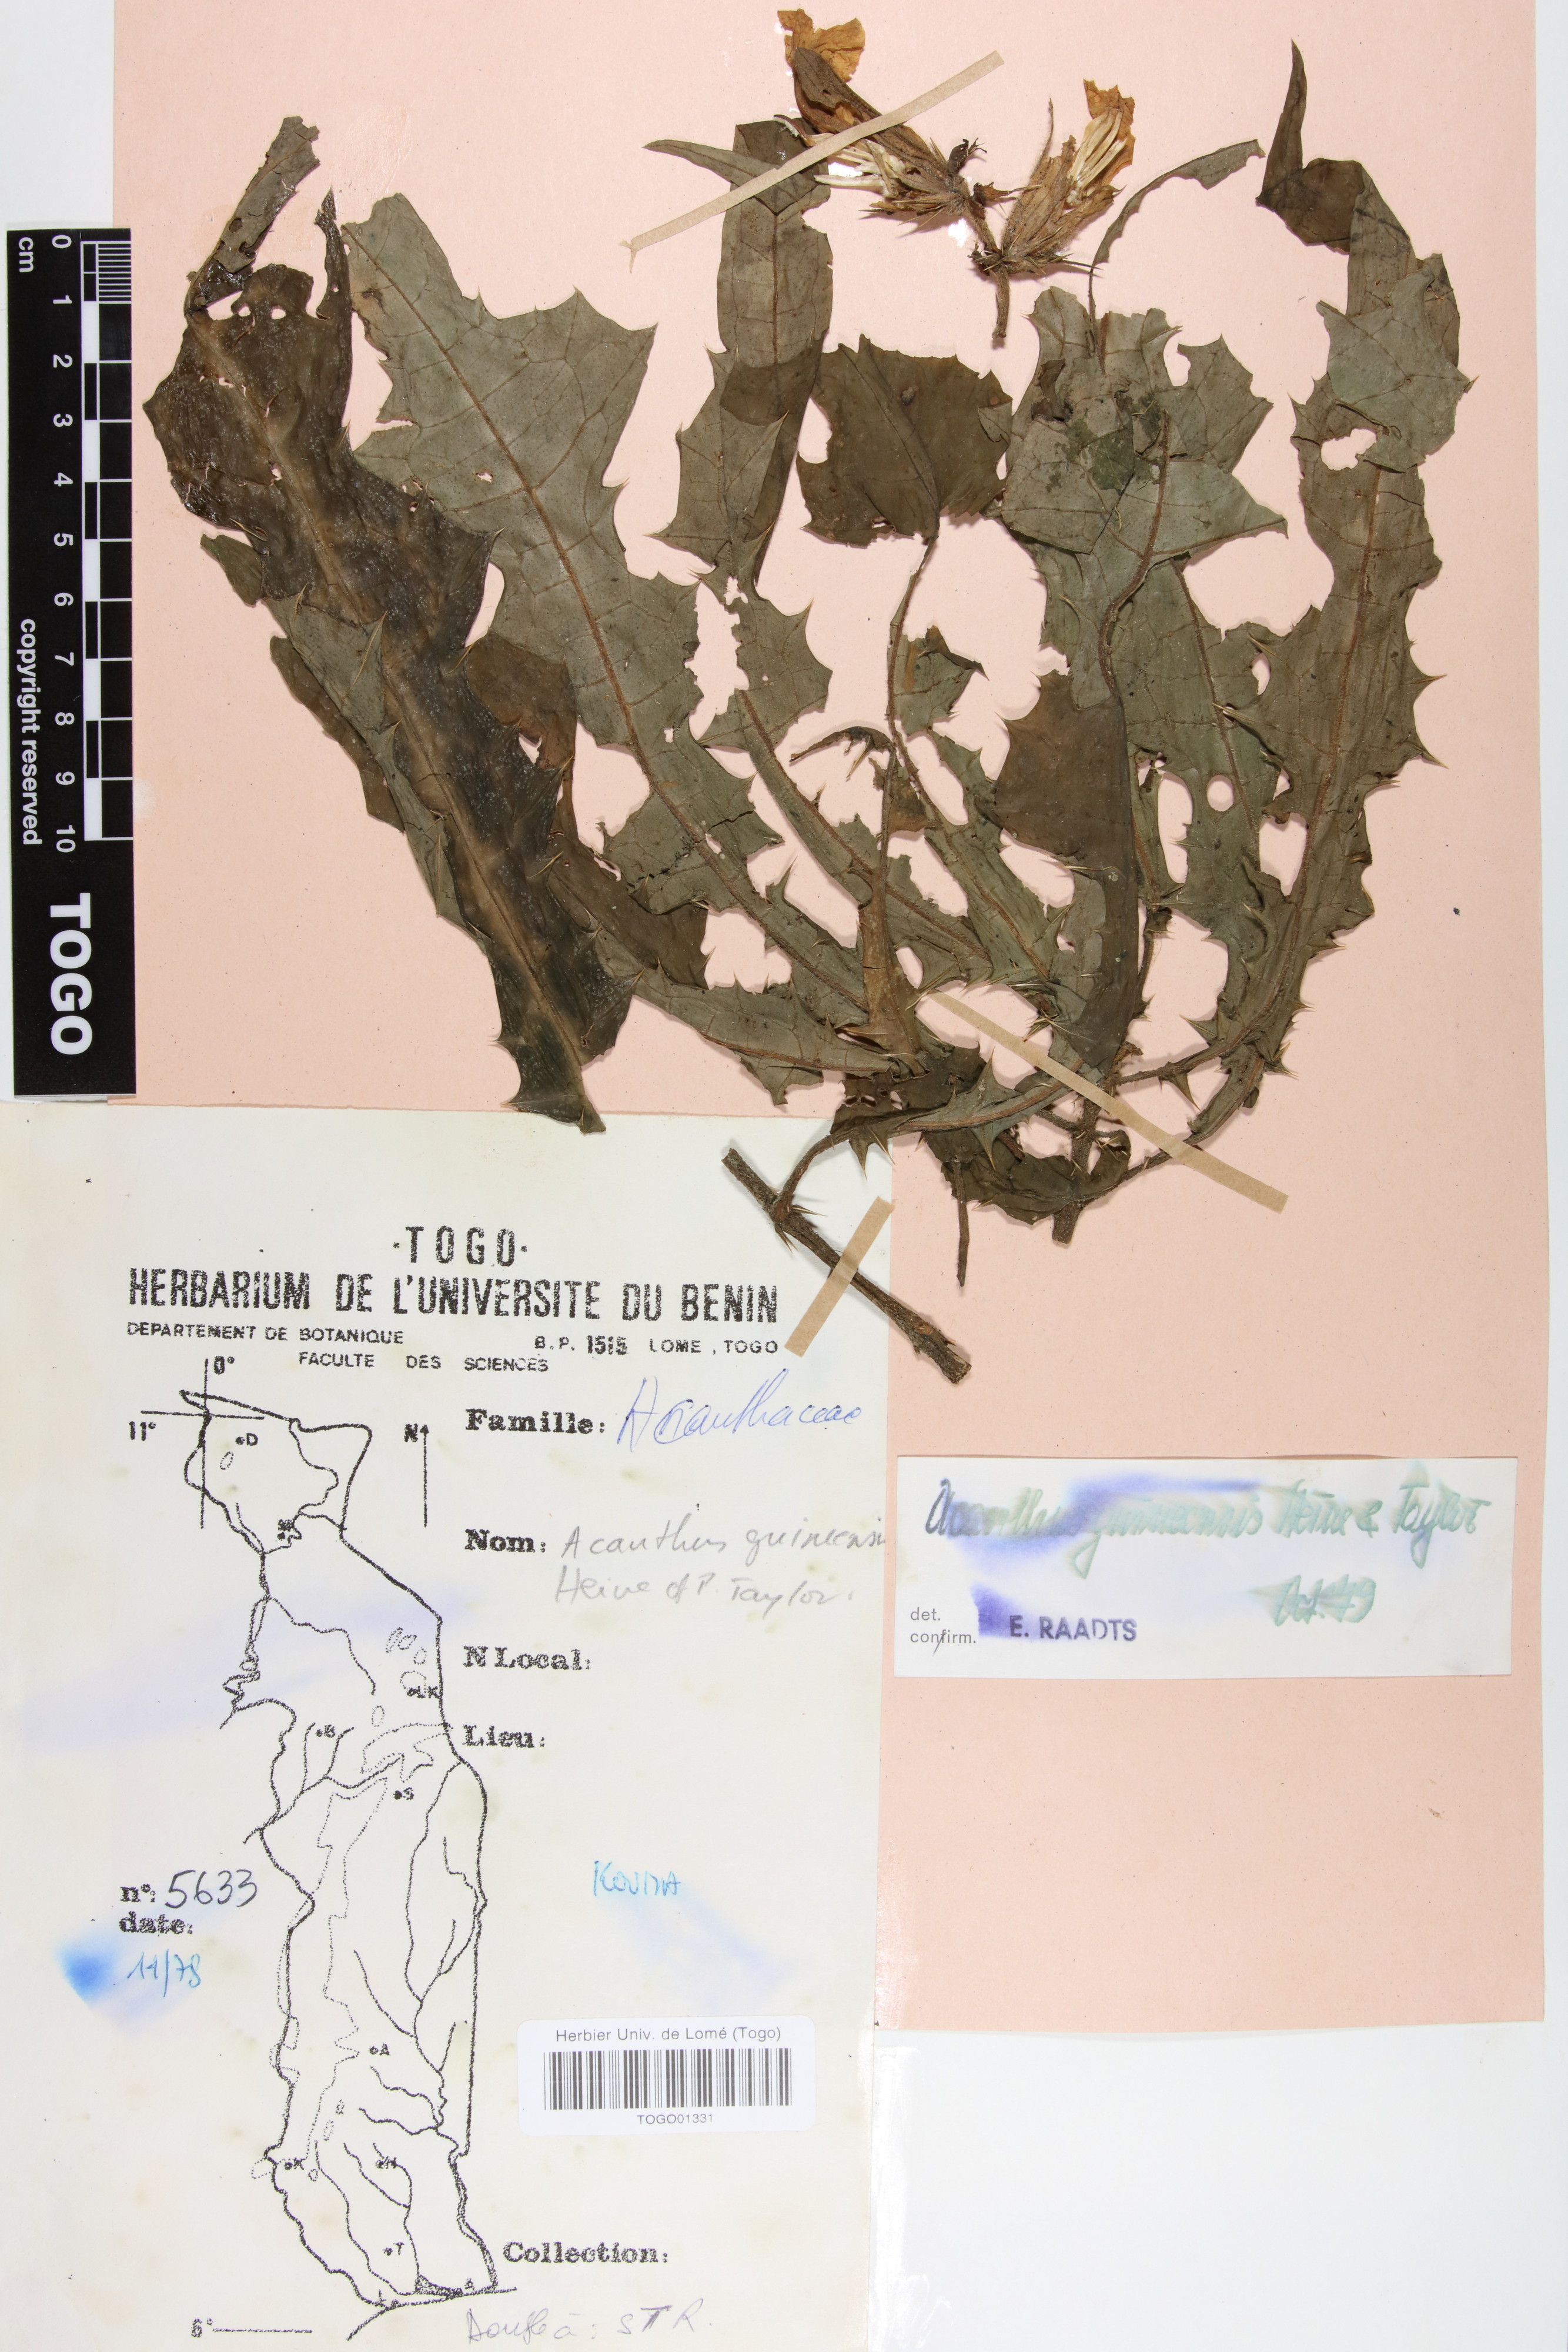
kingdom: Plantae
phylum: Tracheophyta
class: Magnoliopsida
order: Lamiales
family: Acanthaceae
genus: Acanthus
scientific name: Acanthus guineensis
